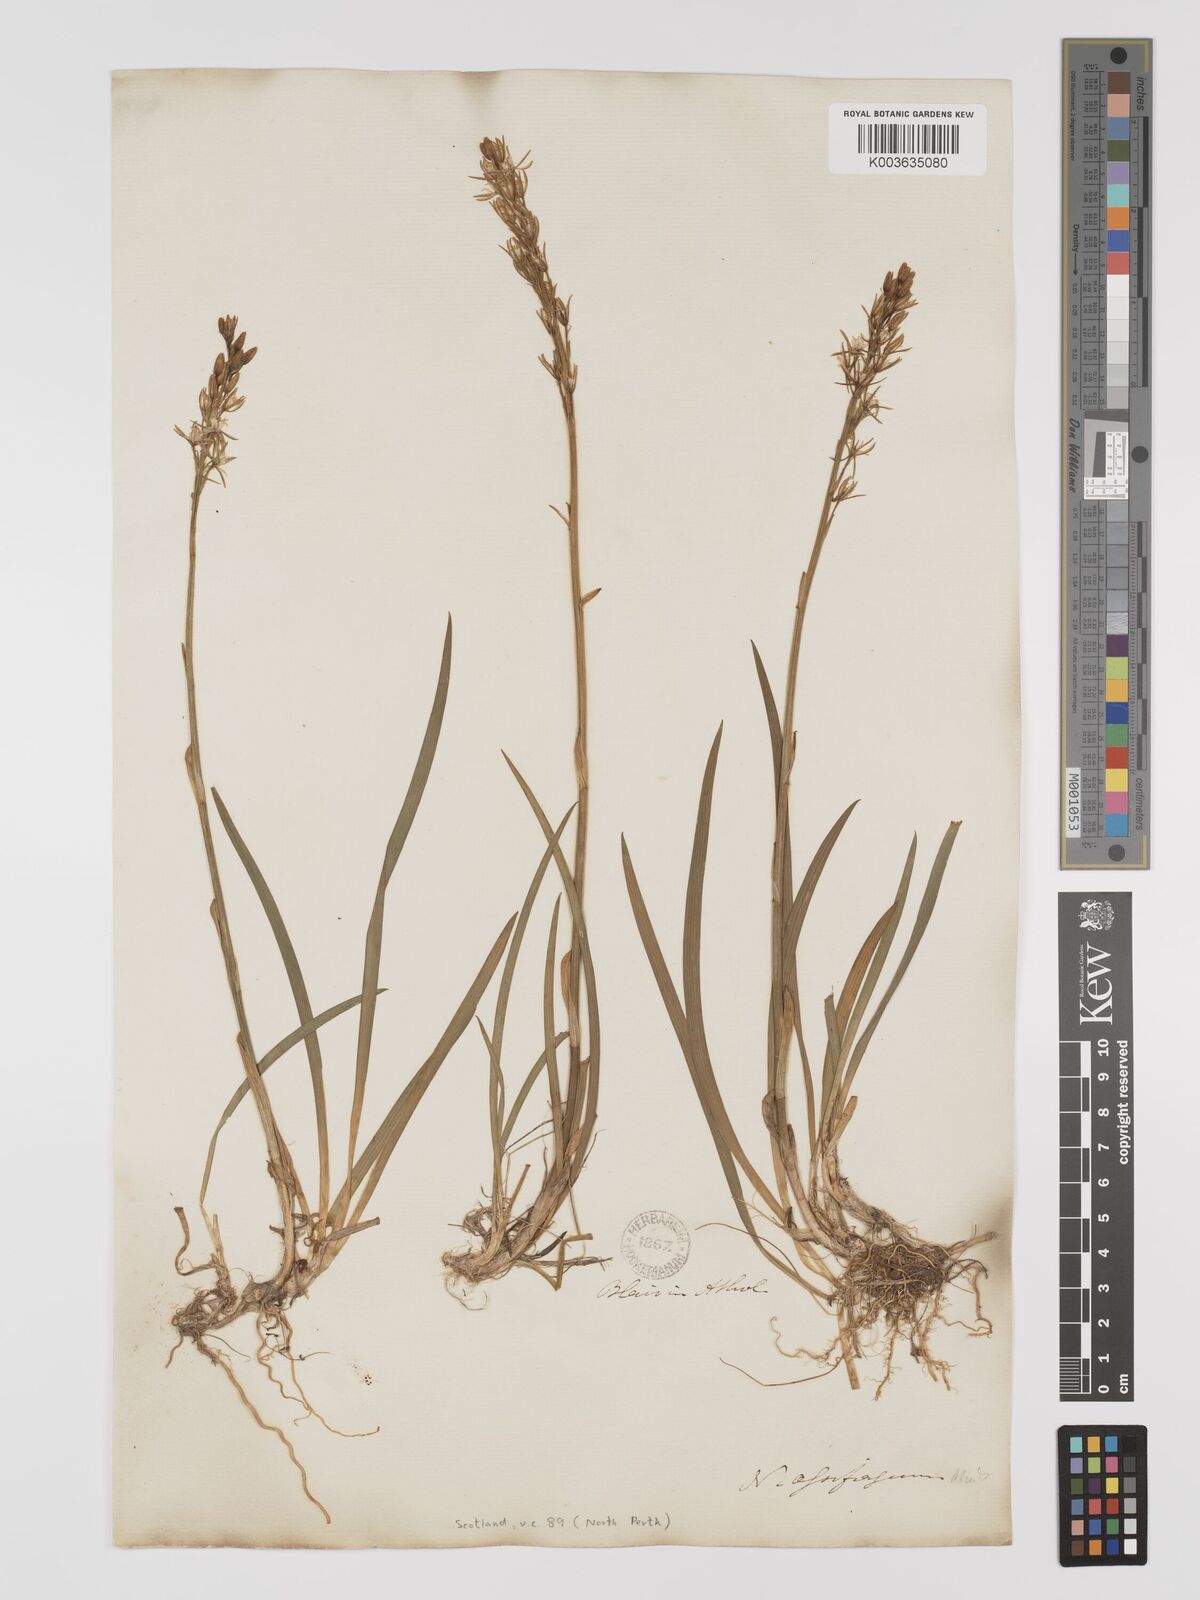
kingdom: Plantae
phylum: Tracheophyta
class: Liliopsida
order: Dioscoreales
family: Nartheciaceae
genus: Narthecium
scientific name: Narthecium
